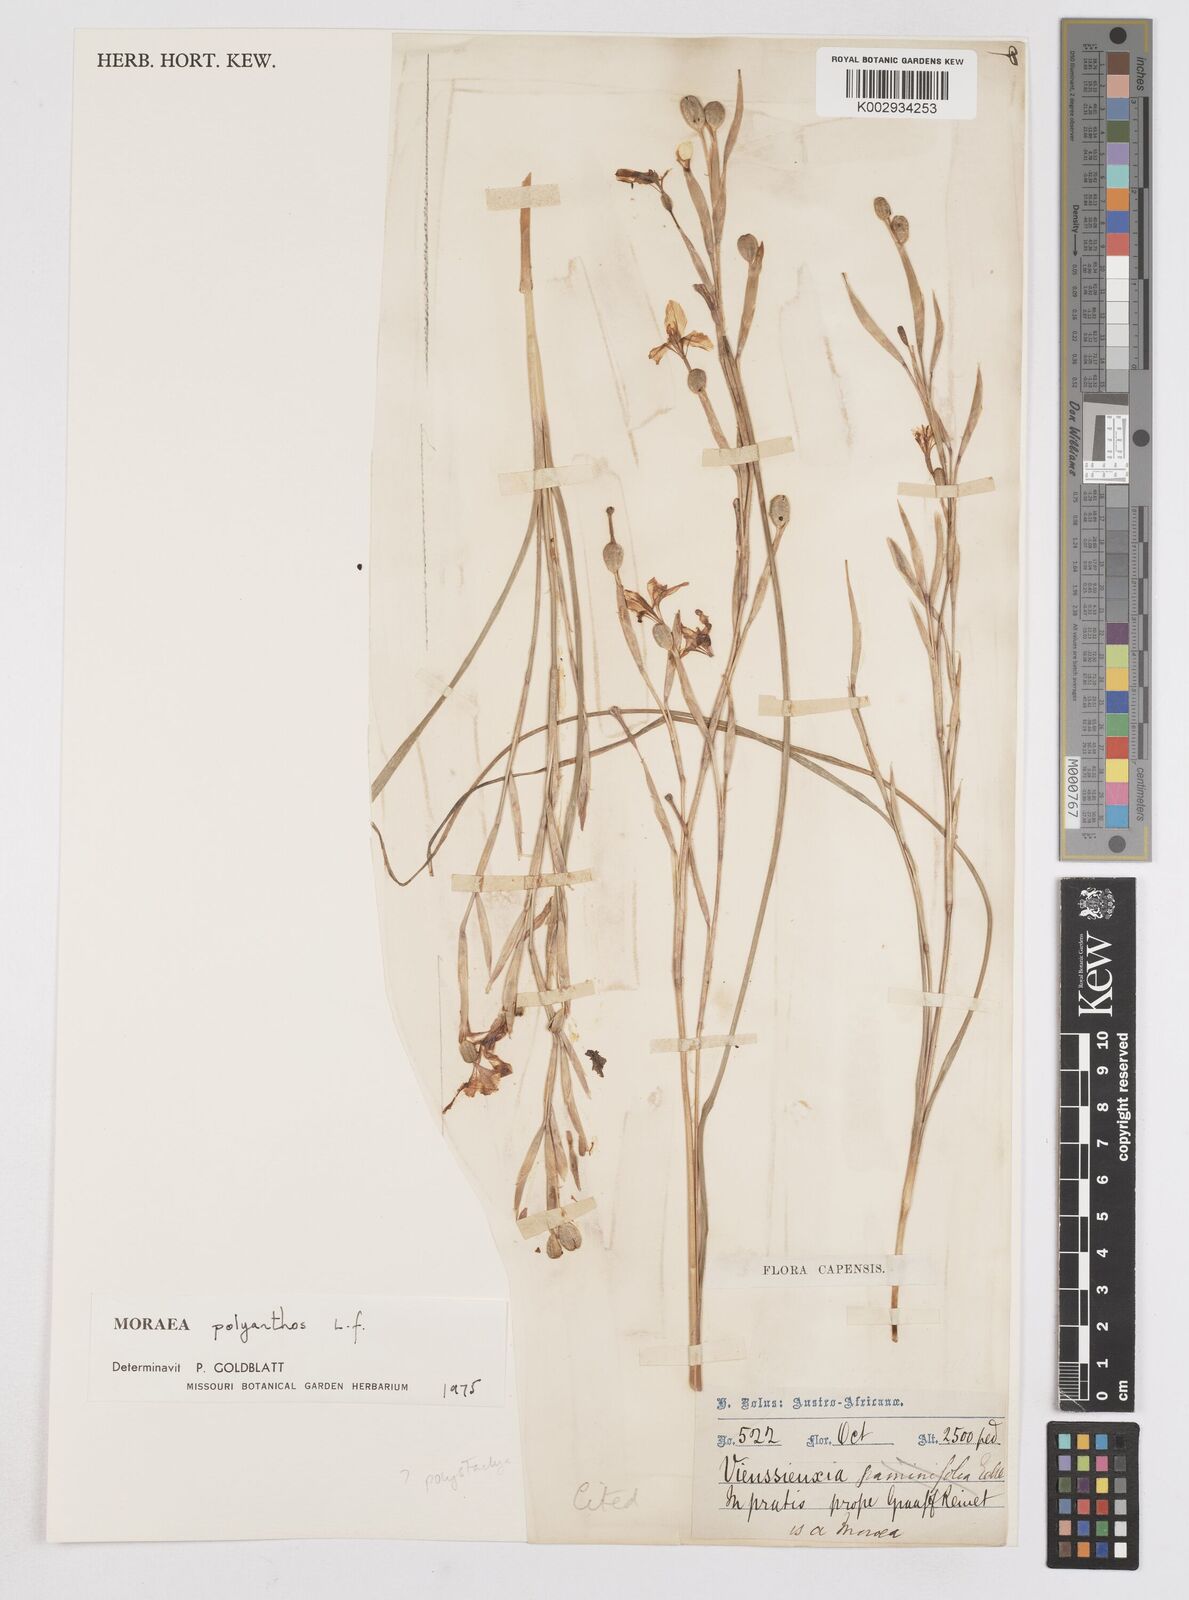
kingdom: Plantae
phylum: Tracheophyta
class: Liliopsida
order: Asparagales
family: Iridaceae
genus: Moraea
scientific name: Moraea bipartita
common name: Blue tulp
